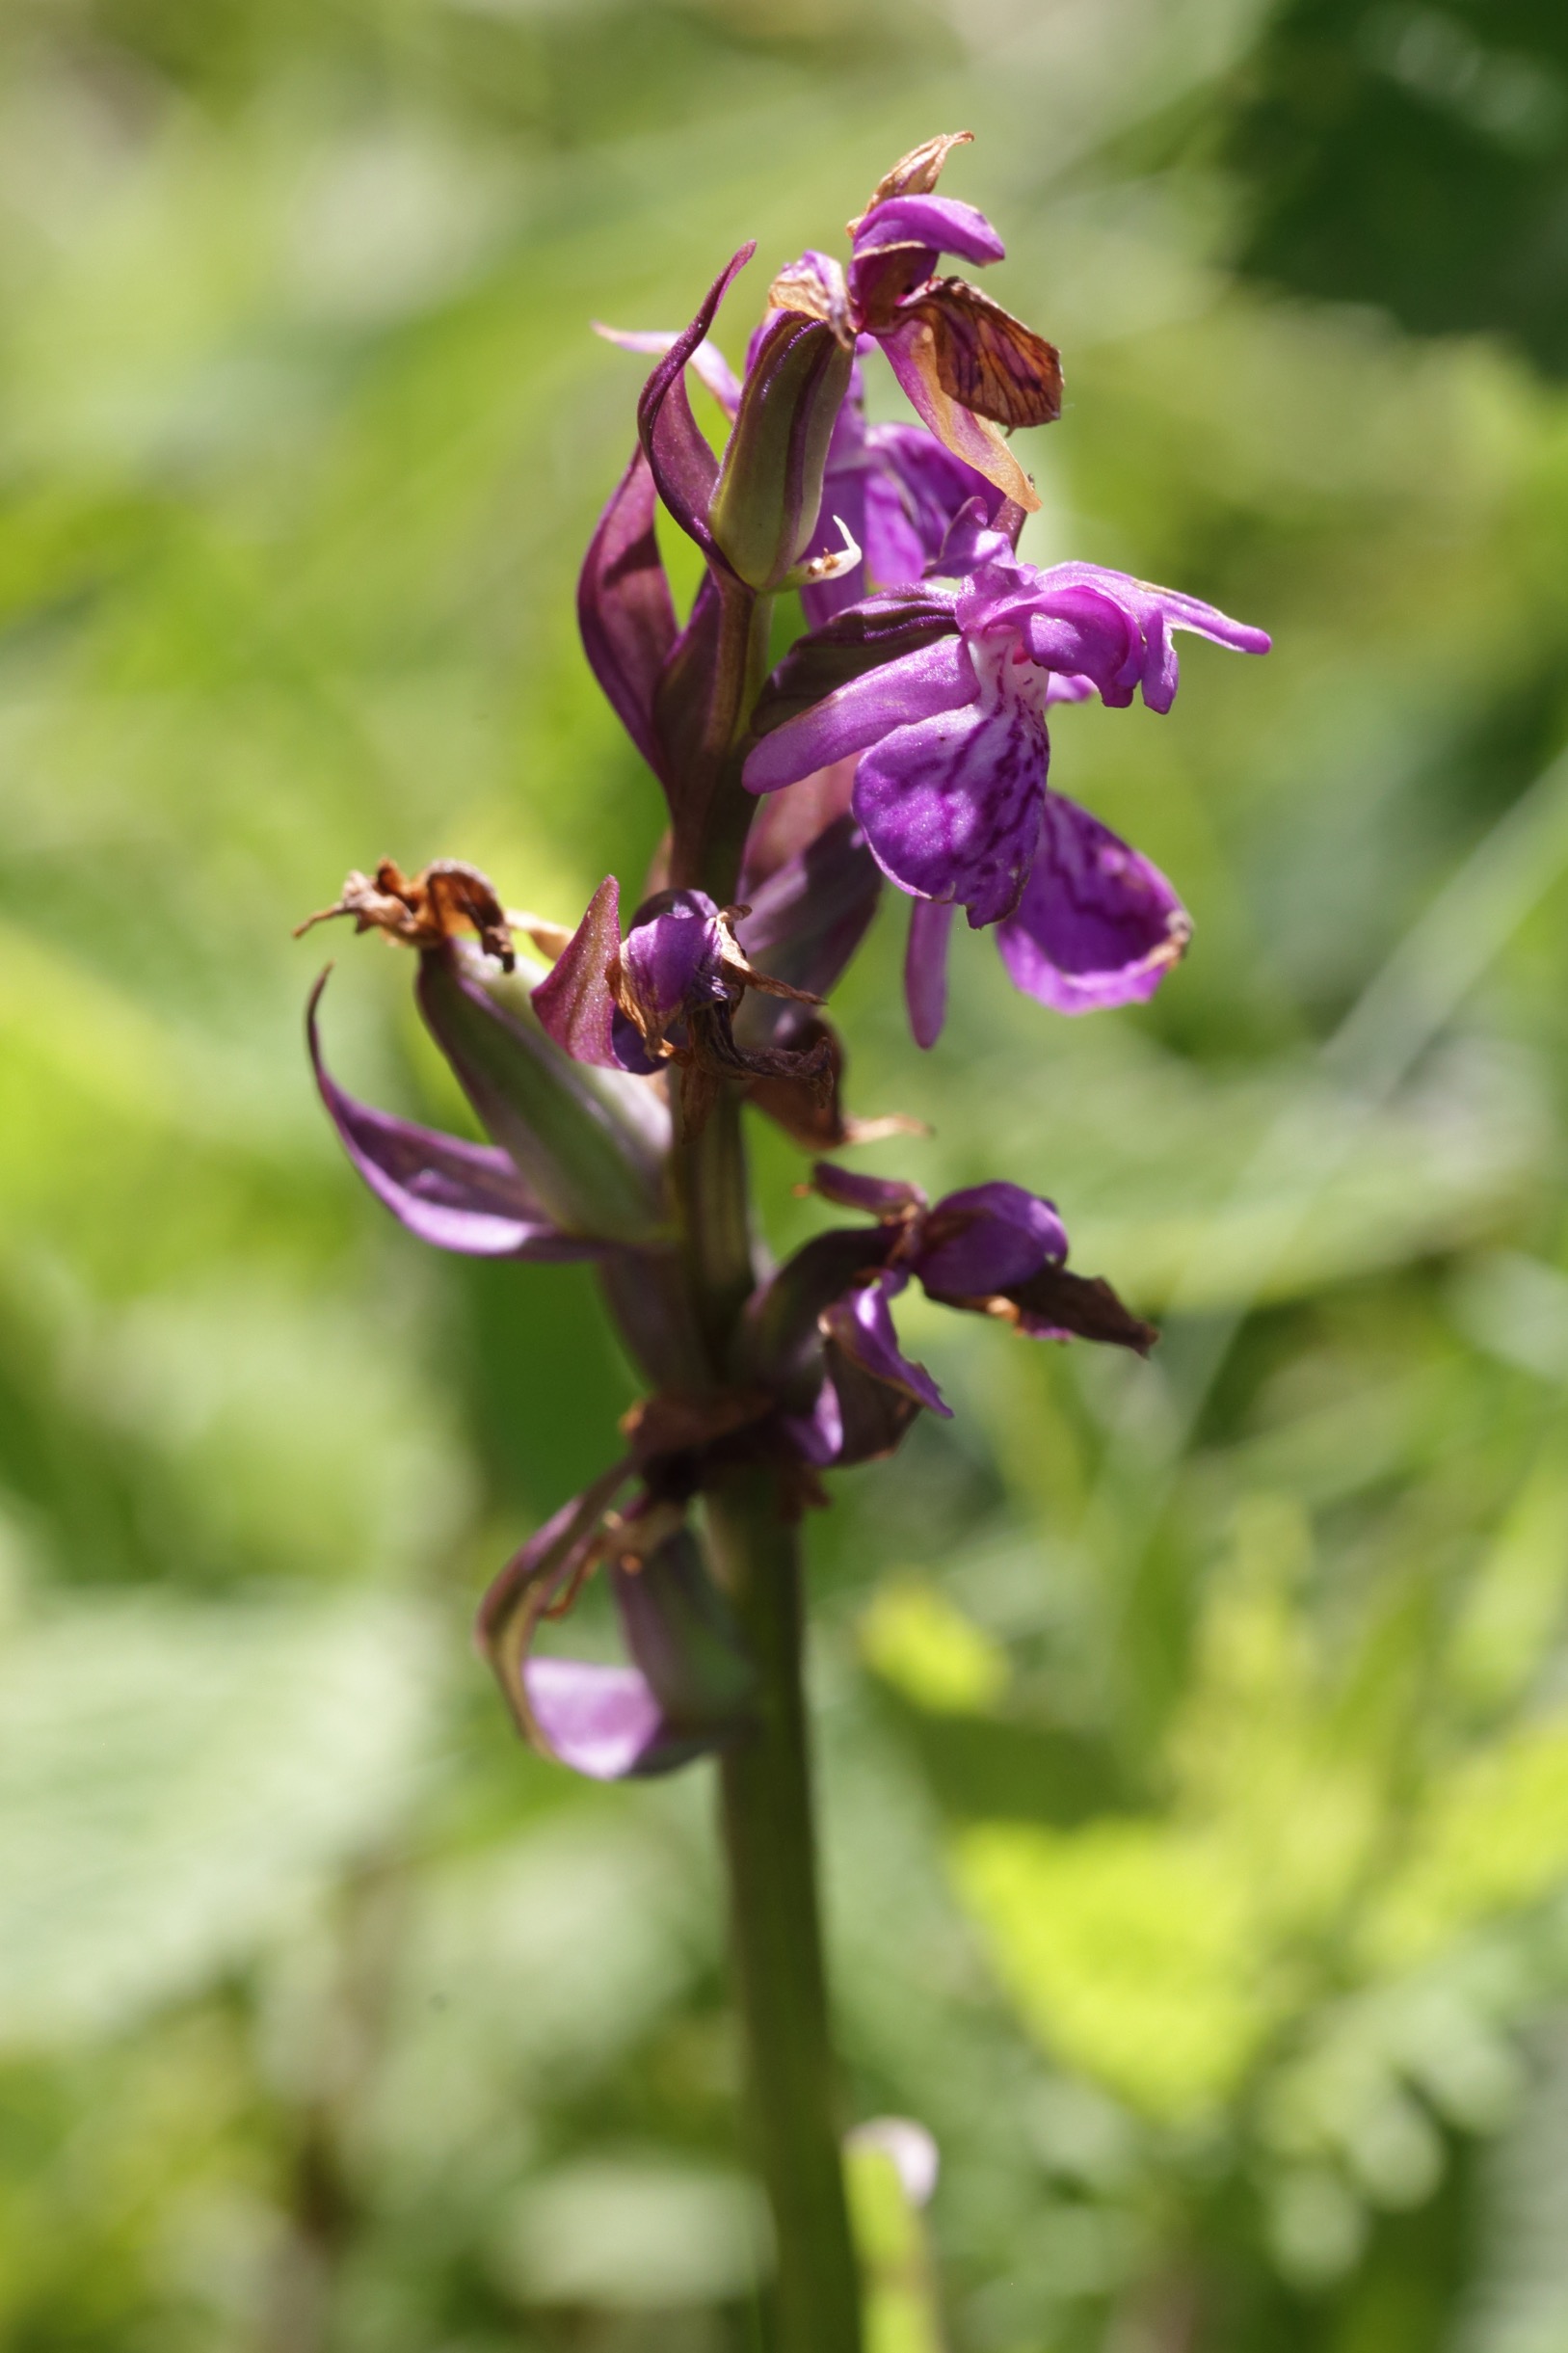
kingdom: Plantae
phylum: Tracheophyta
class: Liliopsida
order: Asparagales
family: Orchidaceae
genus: Dactylorhiza
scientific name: Dactylorhiza majalis
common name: Maj-gøgeurt
